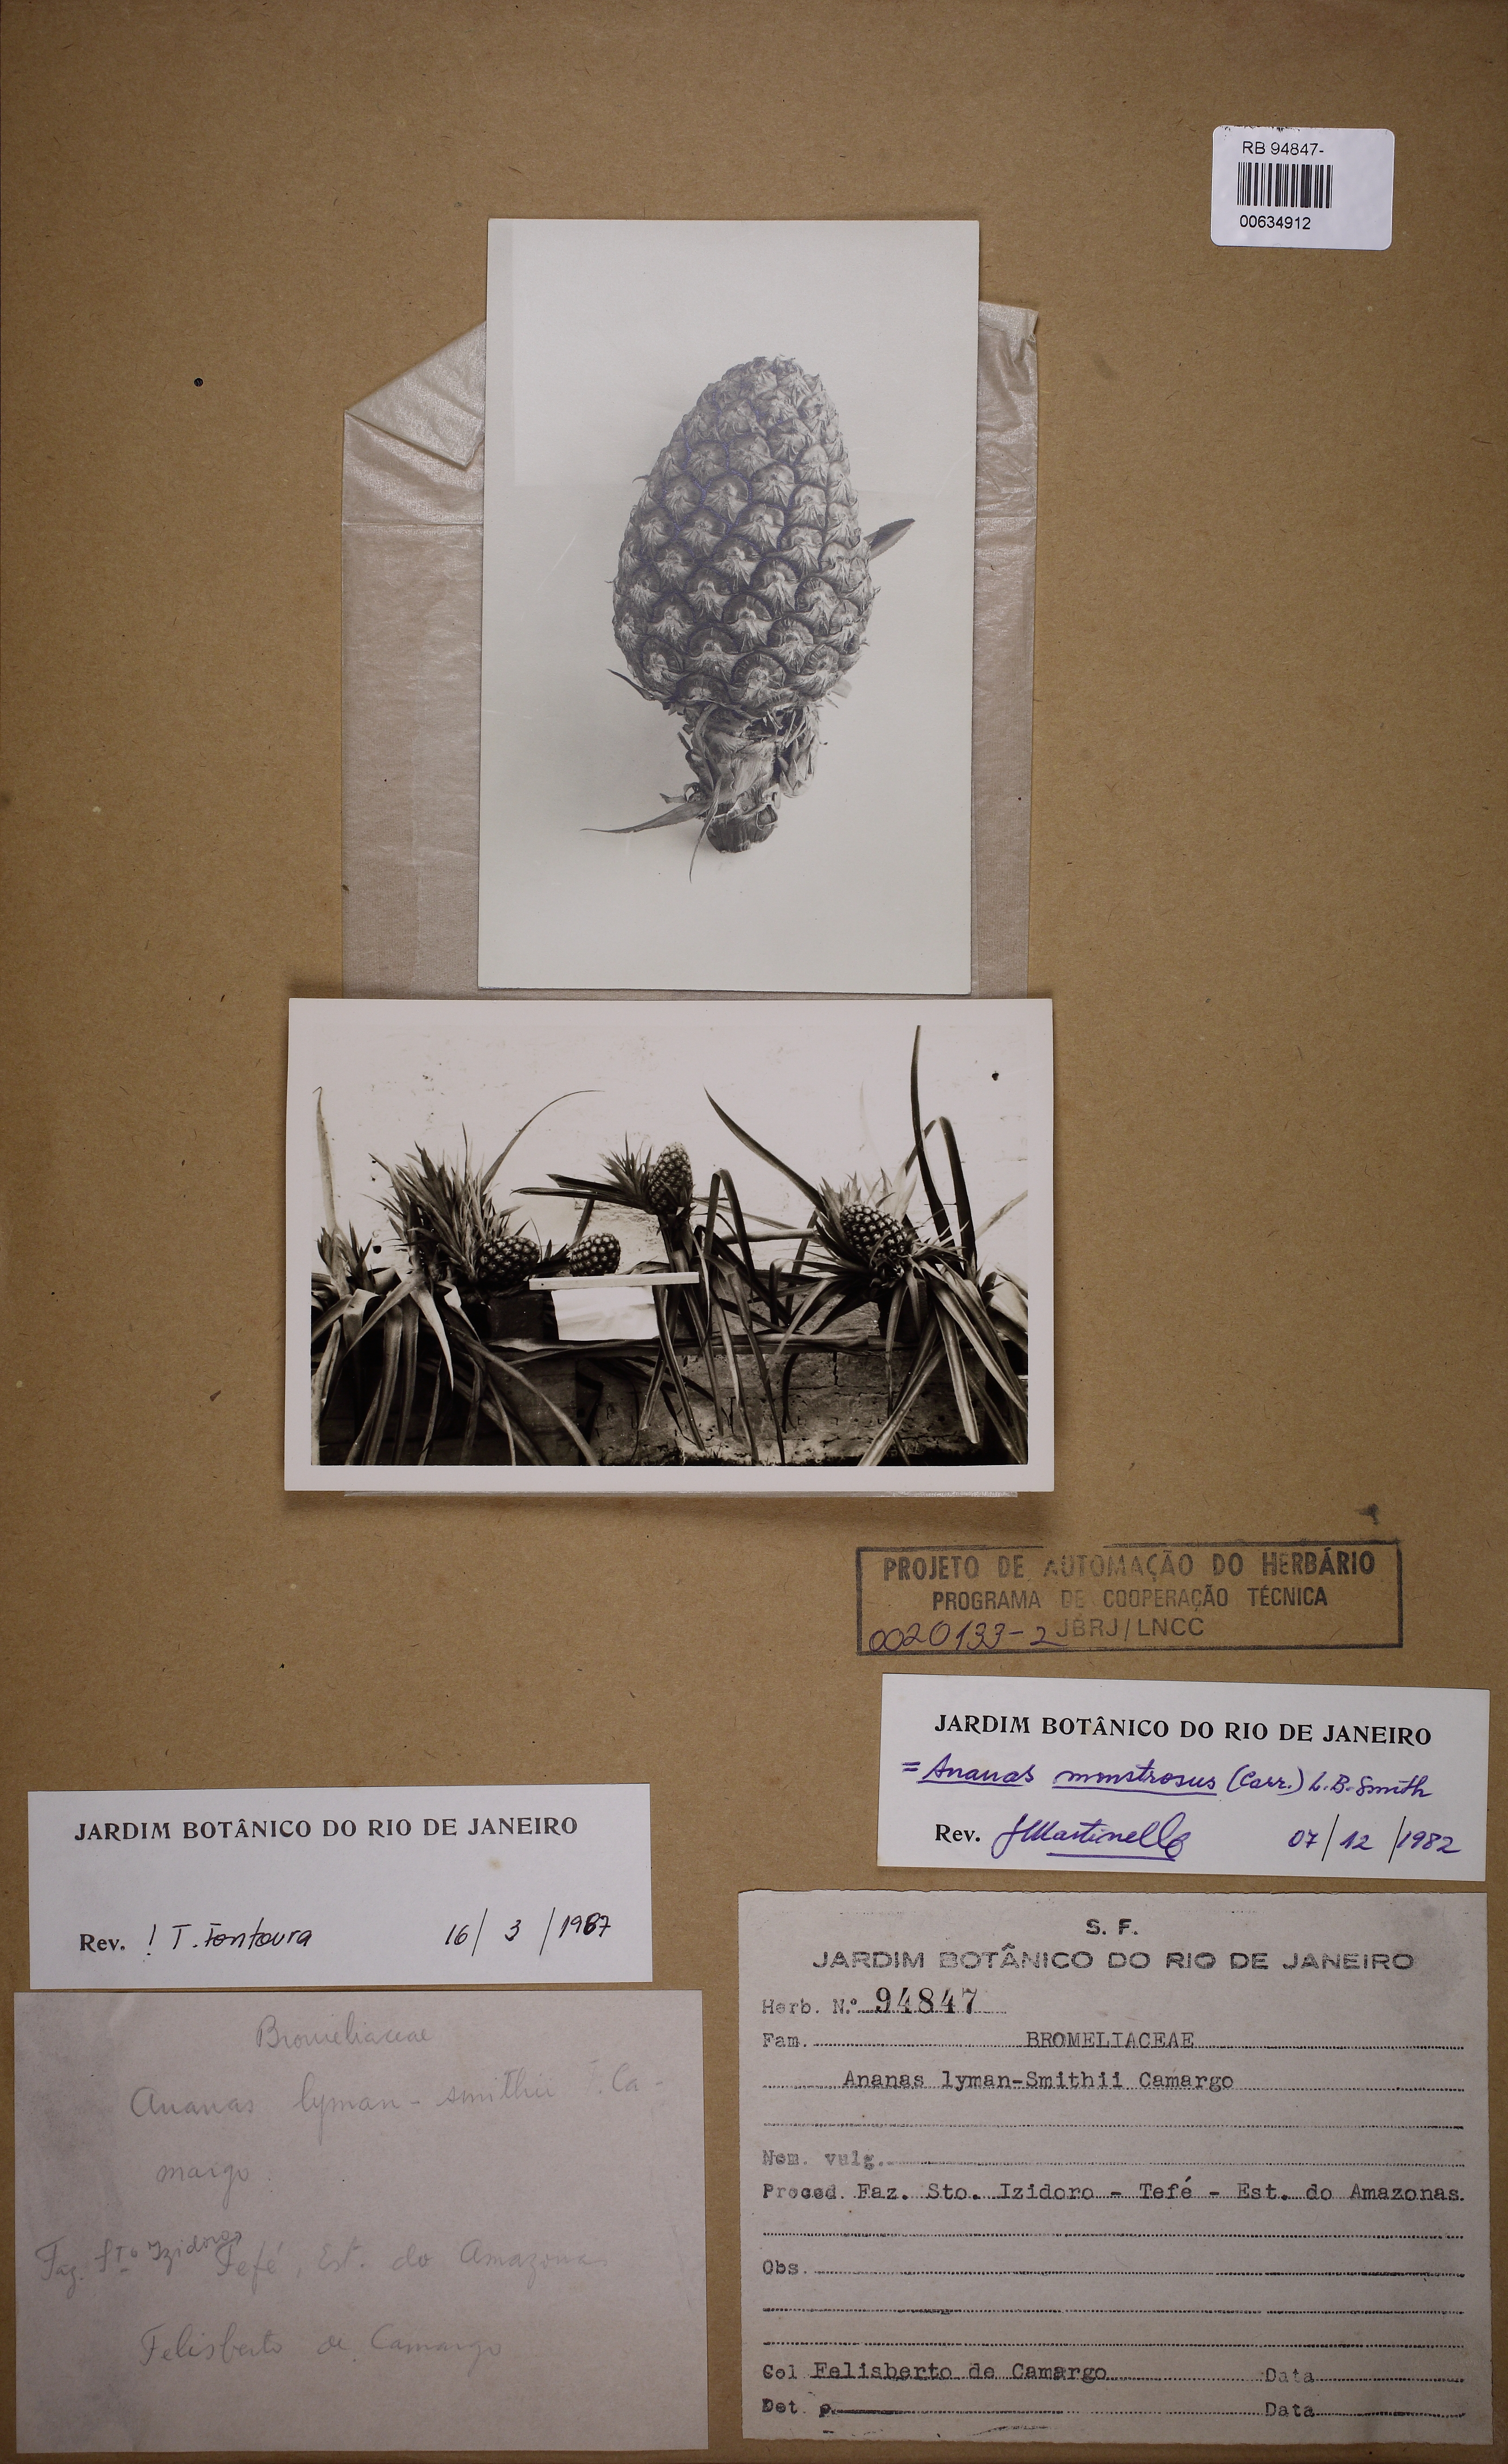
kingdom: Plantae
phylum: Tracheophyta
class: Liliopsida
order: Poales
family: Bromeliaceae
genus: Ananas
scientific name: Ananas comosus
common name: Pineapple
